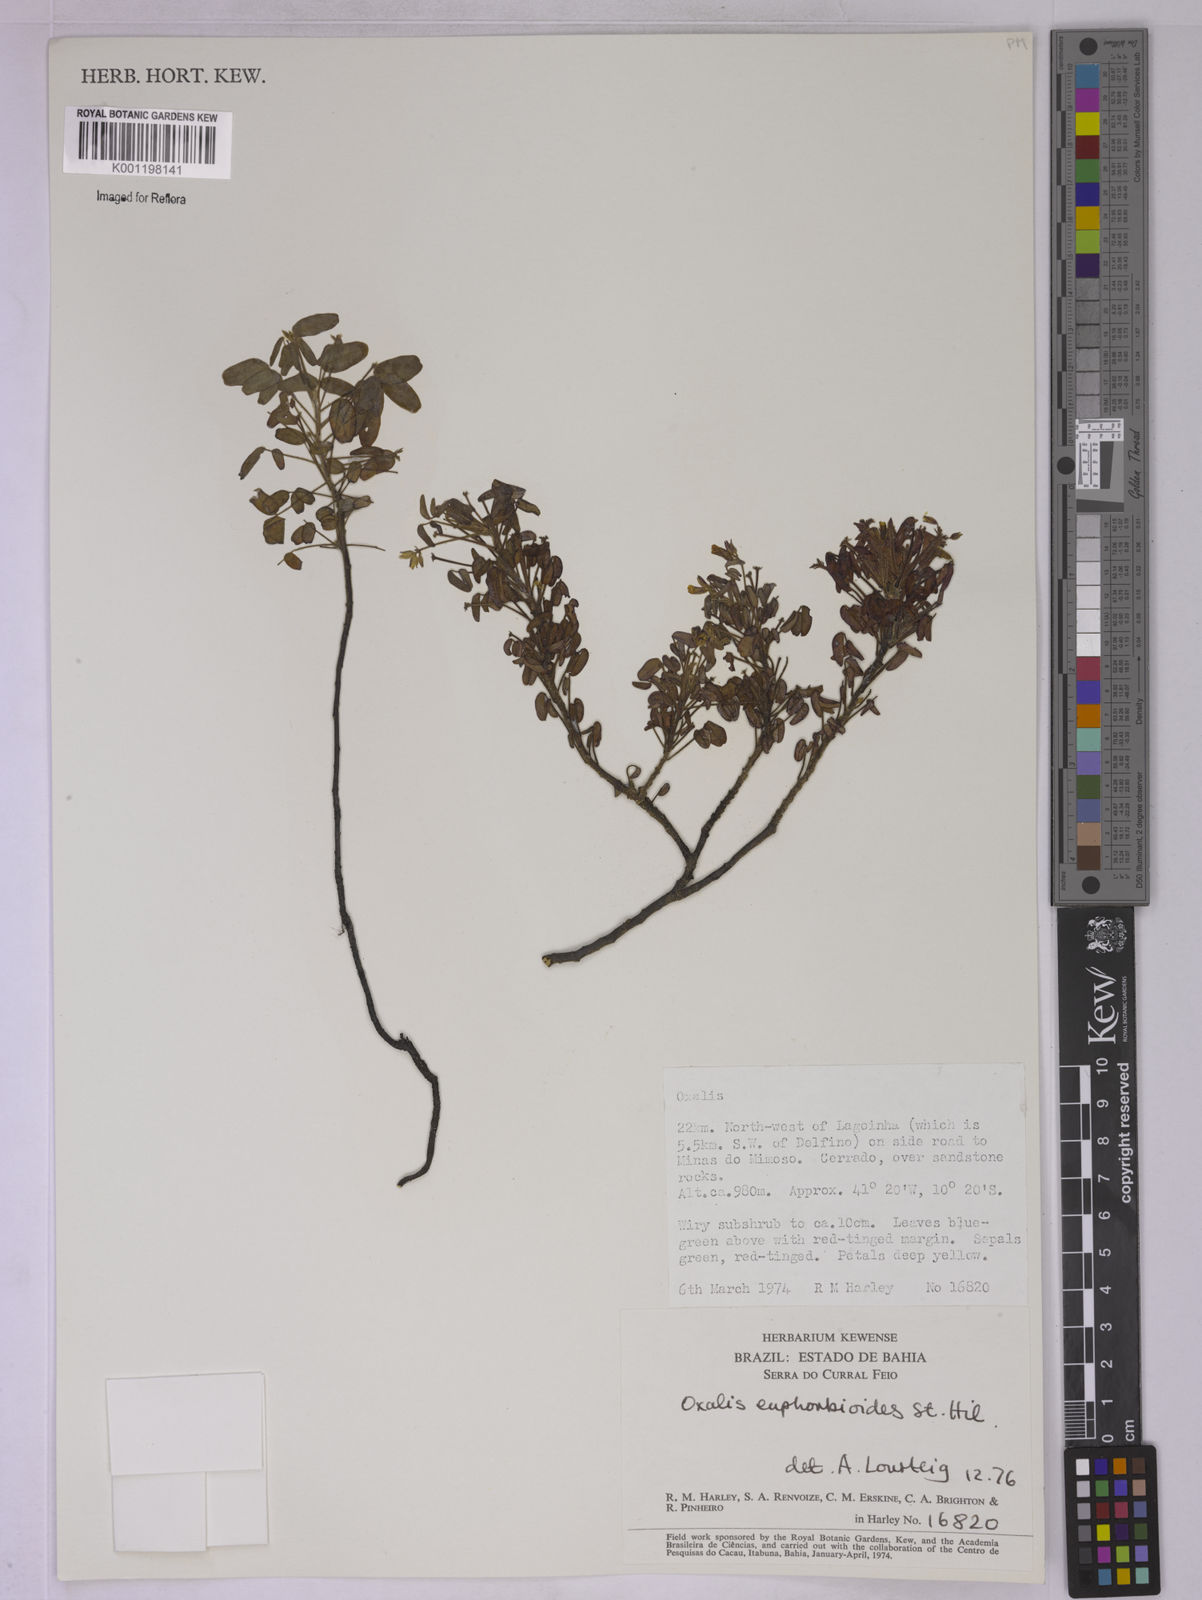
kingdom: Plantae
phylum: Tracheophyta
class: Magnoliopsida
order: Oxalidales
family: Oxalidaceae
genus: Oxalis
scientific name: Oxalis divaricata
